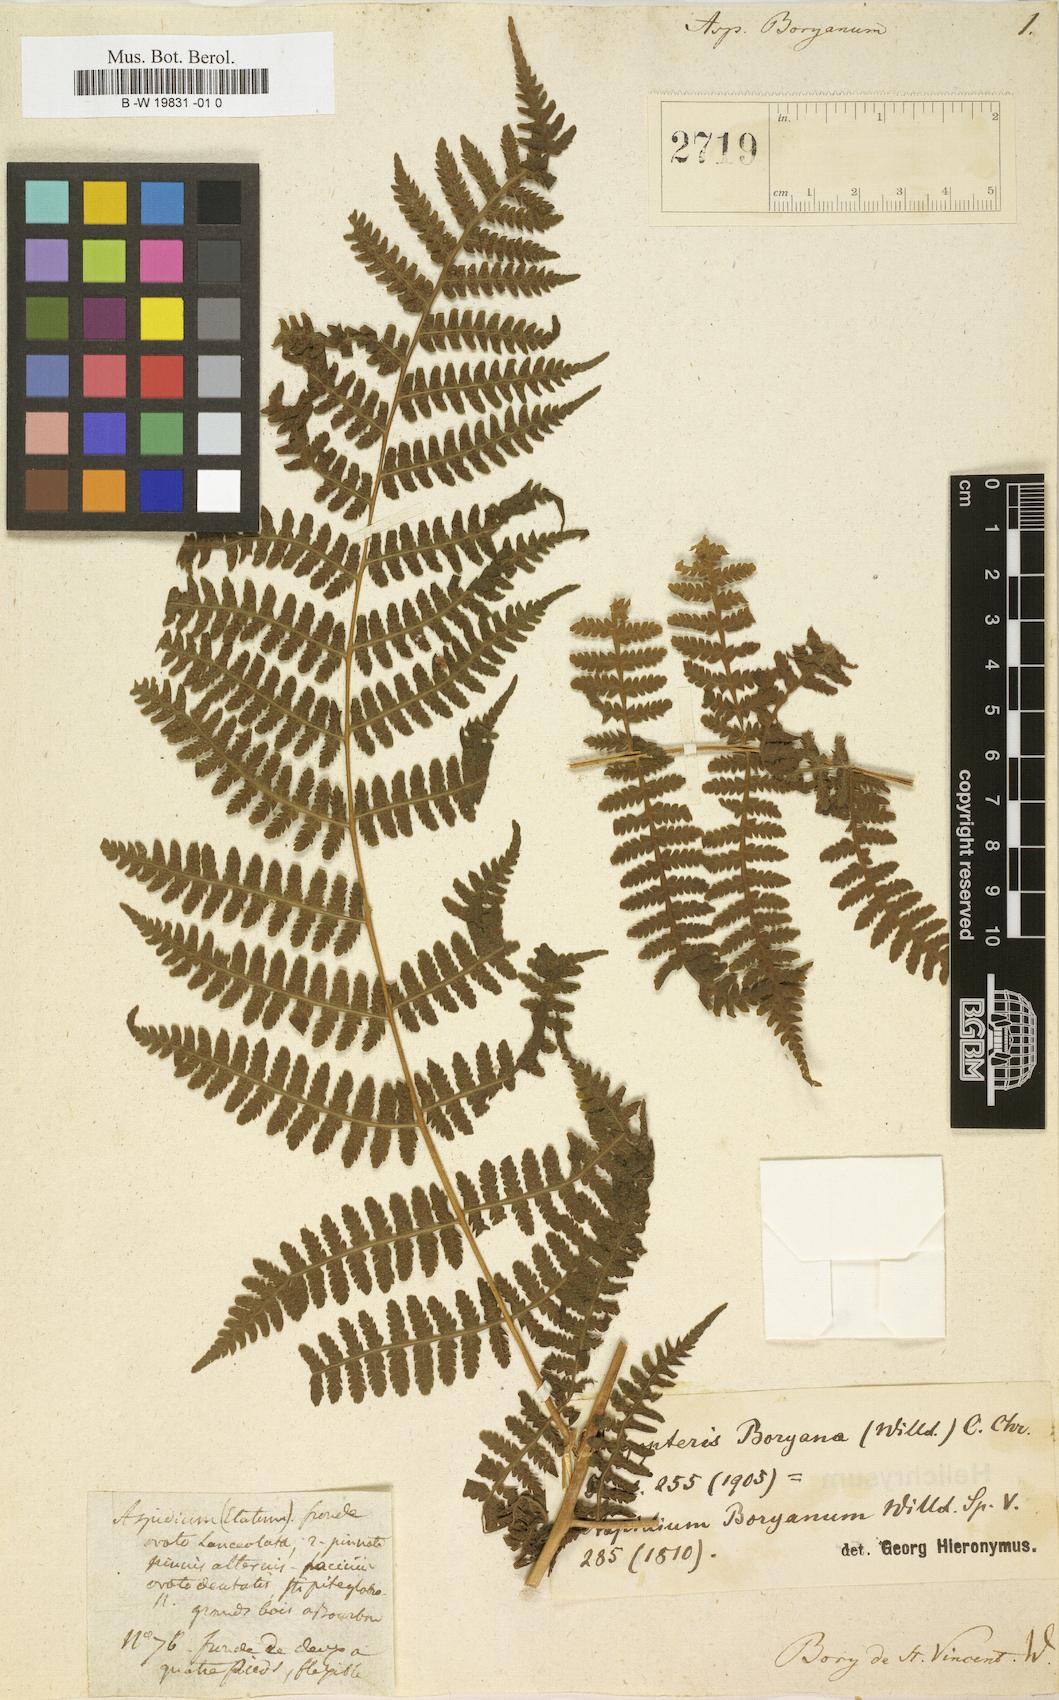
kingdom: Plantae
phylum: Tracheophyta
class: Polypodiopsida
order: Polypodiales
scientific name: Polypodiales
